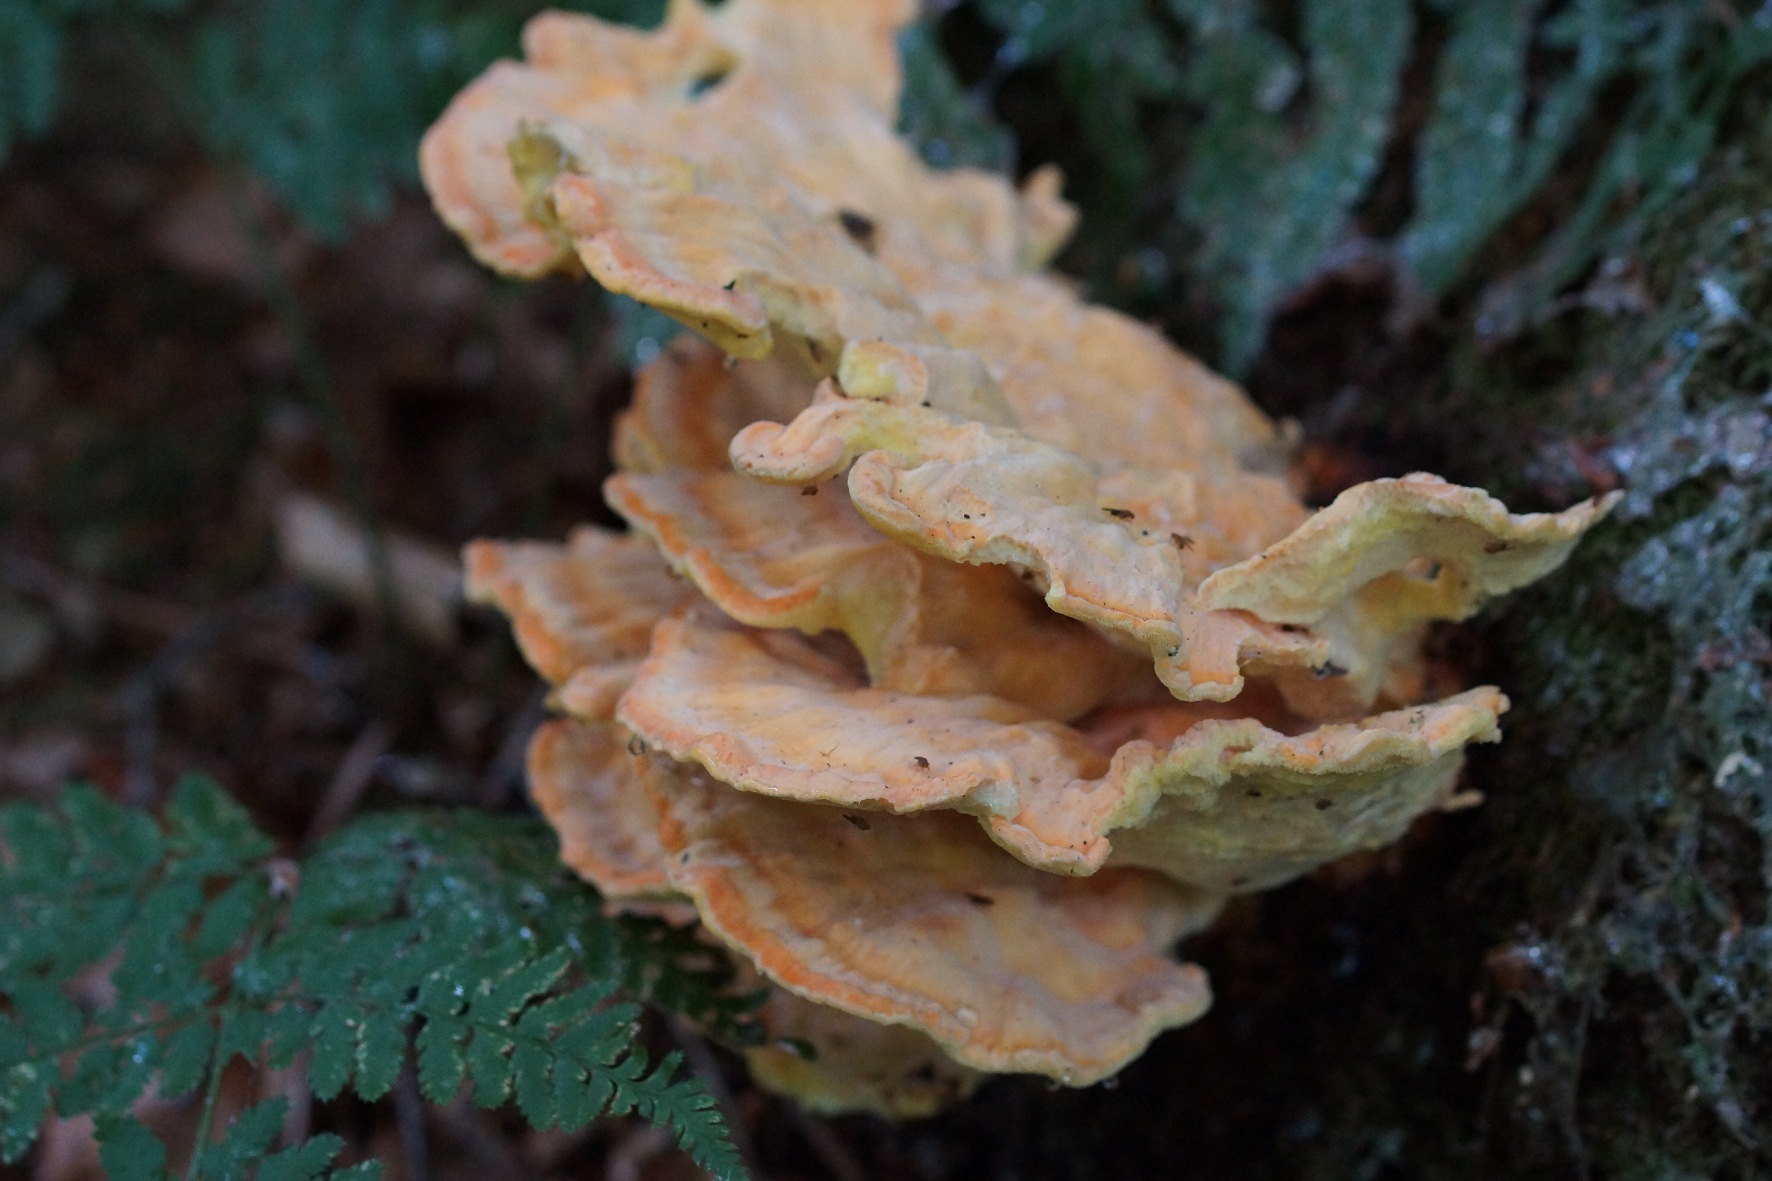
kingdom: Fungi
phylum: Basidiomycota
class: Agaricomycetes
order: Polyporales
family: Laetiporaceae
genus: Laetiporus
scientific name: Laetiporus sulphureus
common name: Svovlporesvamp
